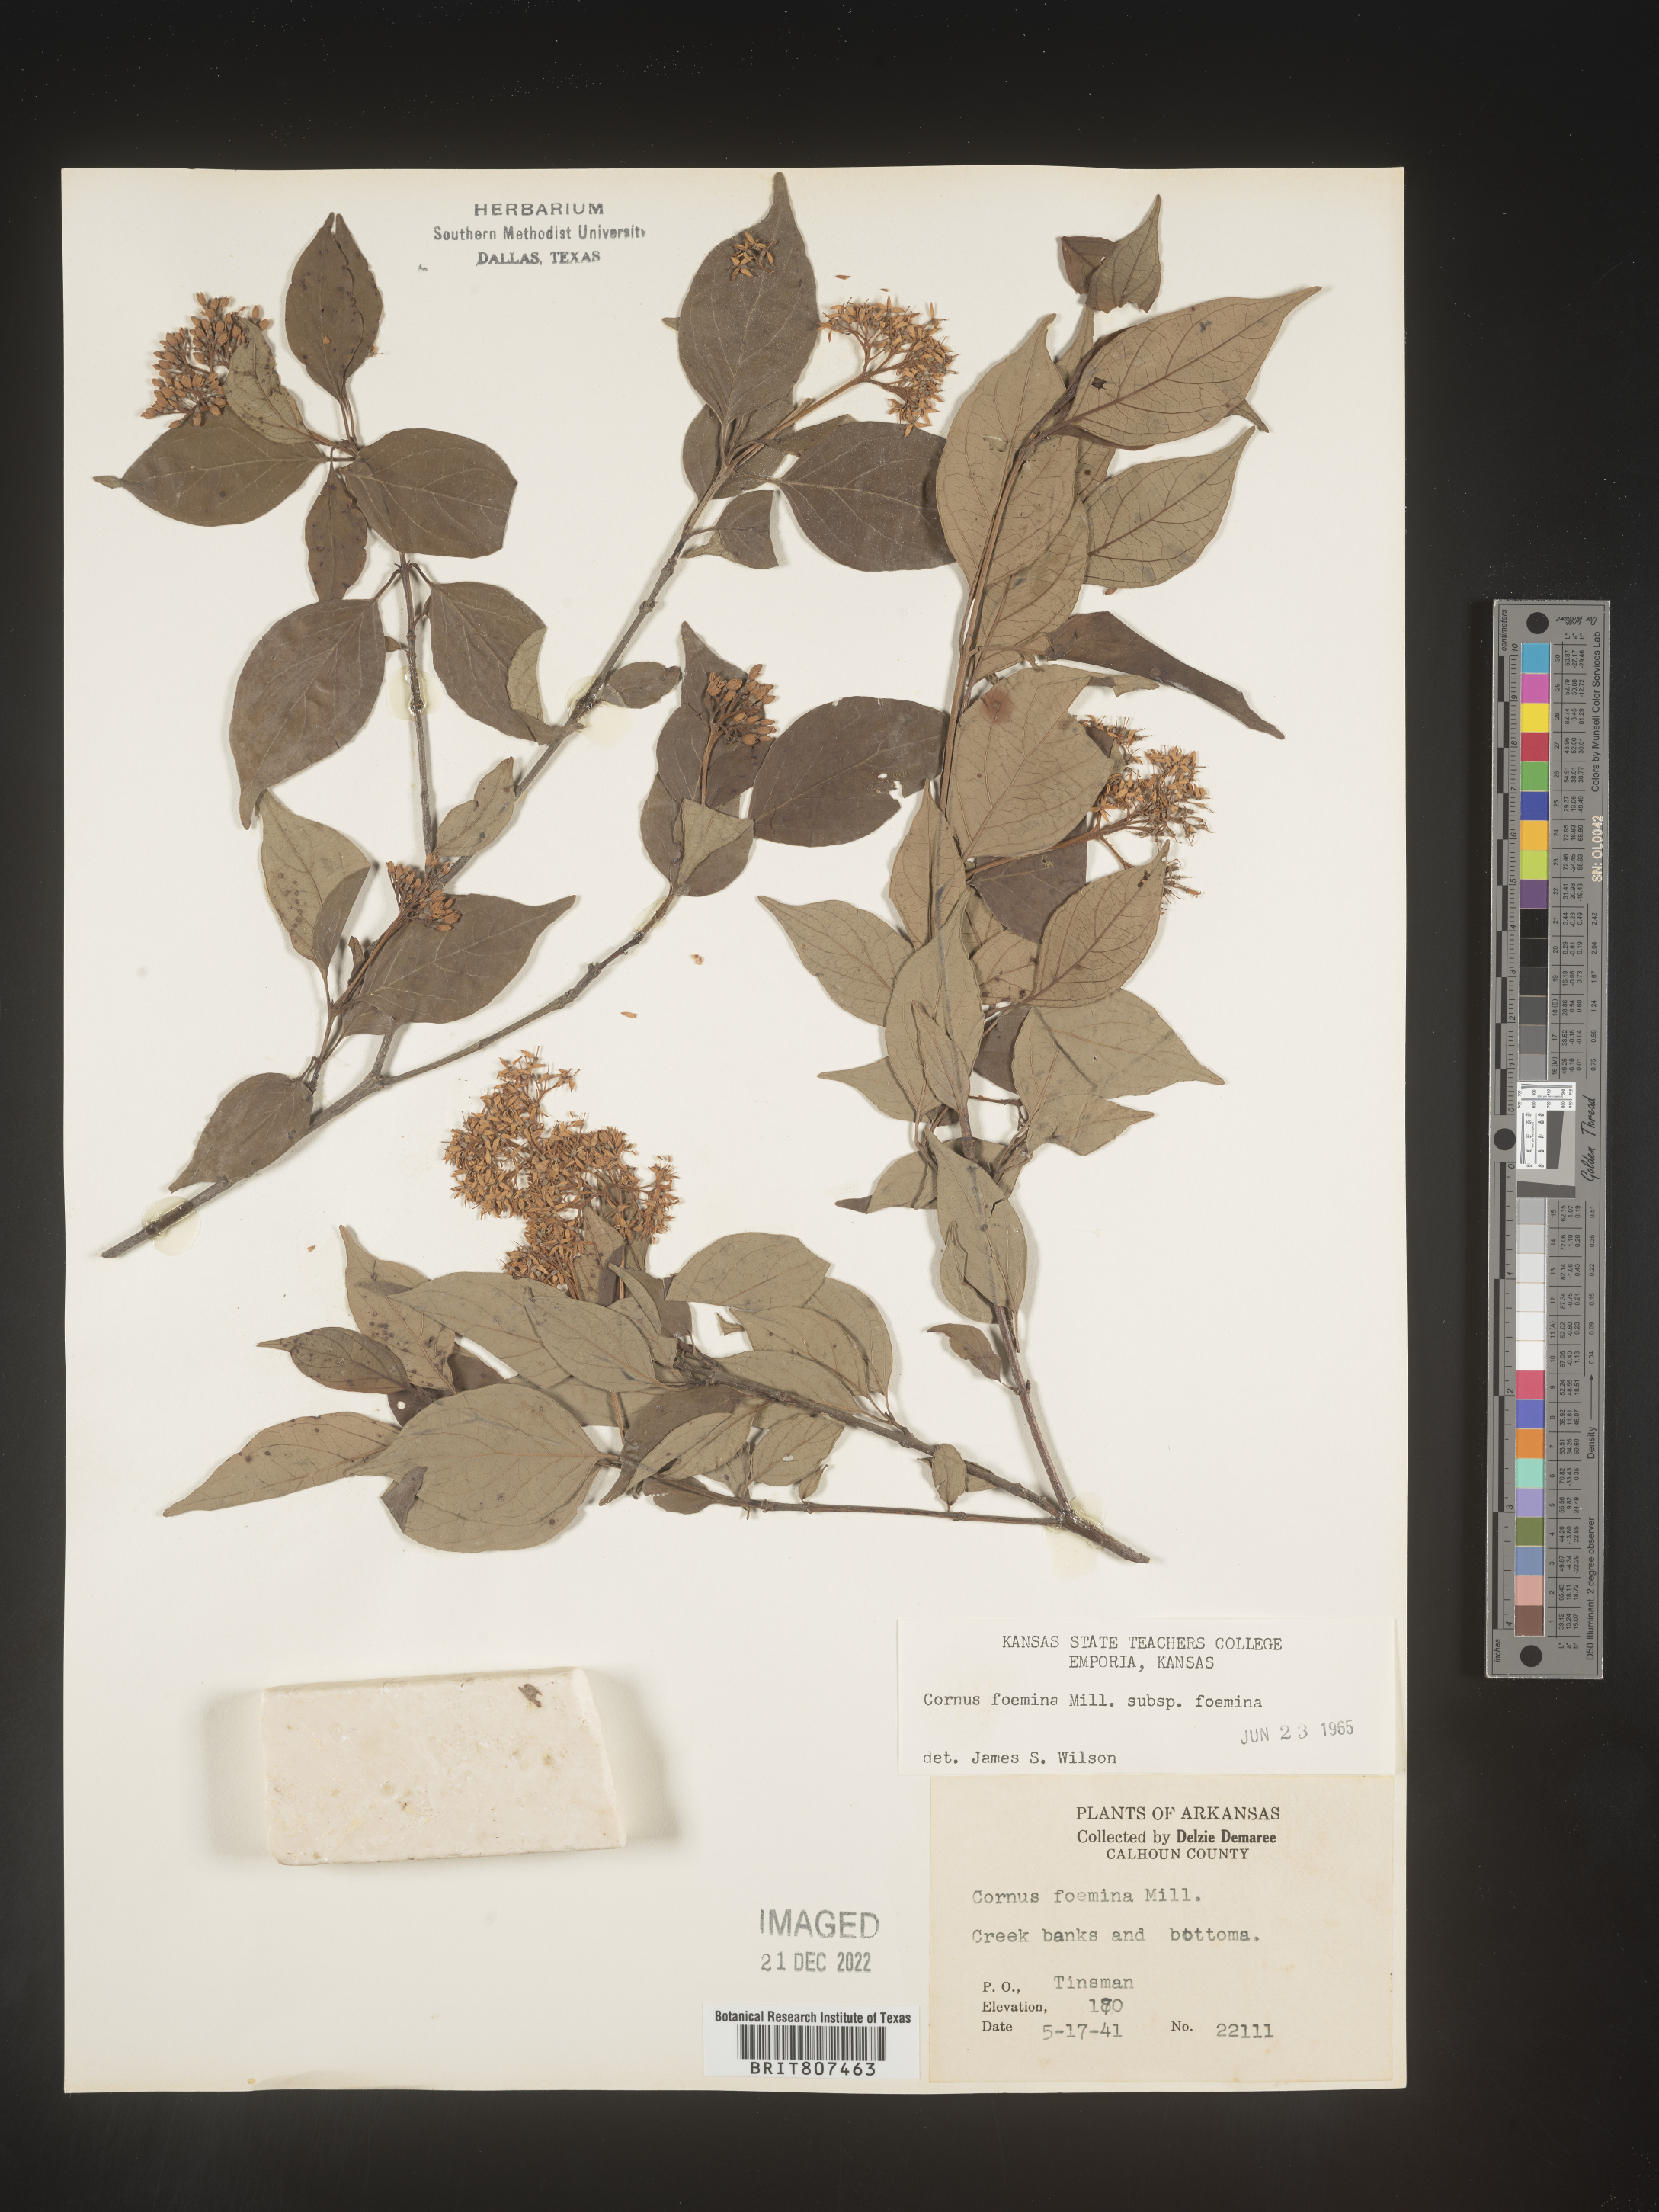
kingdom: Plantae
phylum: Tracheophyta
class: Magnoliopsida
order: Cornales
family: Cornaceae
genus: Cornus
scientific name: Cornus foemina
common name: Swamp dogwood
